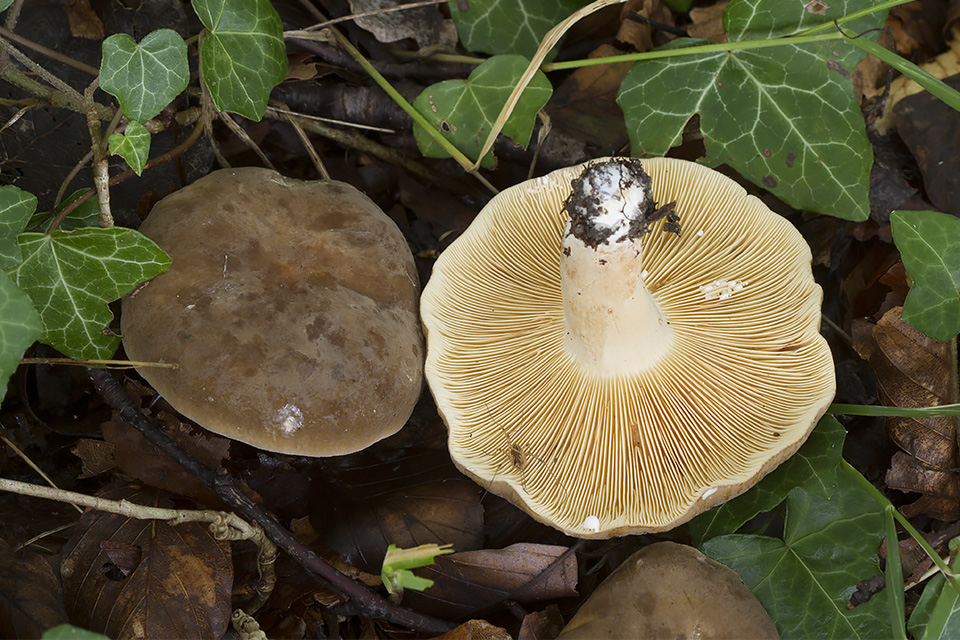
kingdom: Fungi
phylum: Basidiomycota
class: Agaricomycetes
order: Russulales
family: Russulaceae
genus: Lactarius
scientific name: Lactarius pterosporus
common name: vingesporet mælkehat
